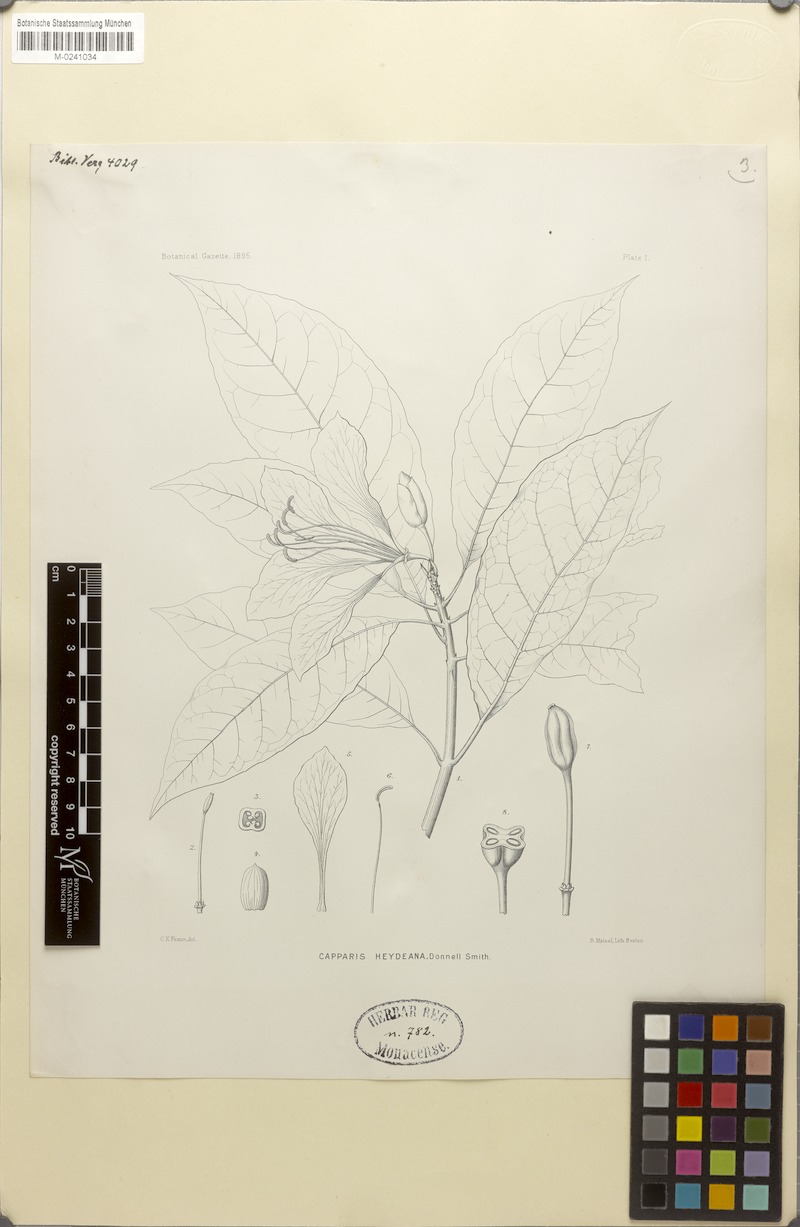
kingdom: Plantae
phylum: Tracheophyta
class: Magnoliopsida
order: Brassicales
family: Capparaceae
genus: Caphexandra
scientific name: Caphexandra heydeana
